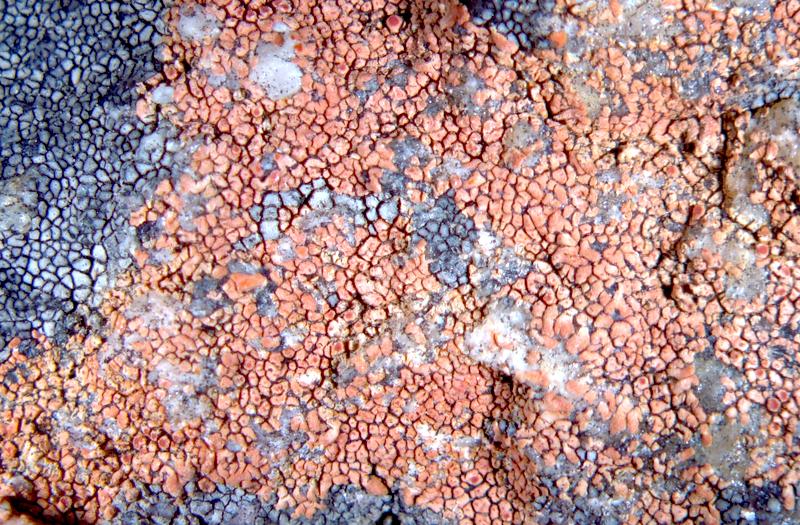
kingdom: Fungi
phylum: Ascomycota
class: Lecanoromycetes
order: Teloschistales
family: Teloschistaceae
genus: Caloplaca
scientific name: Caloplaca
